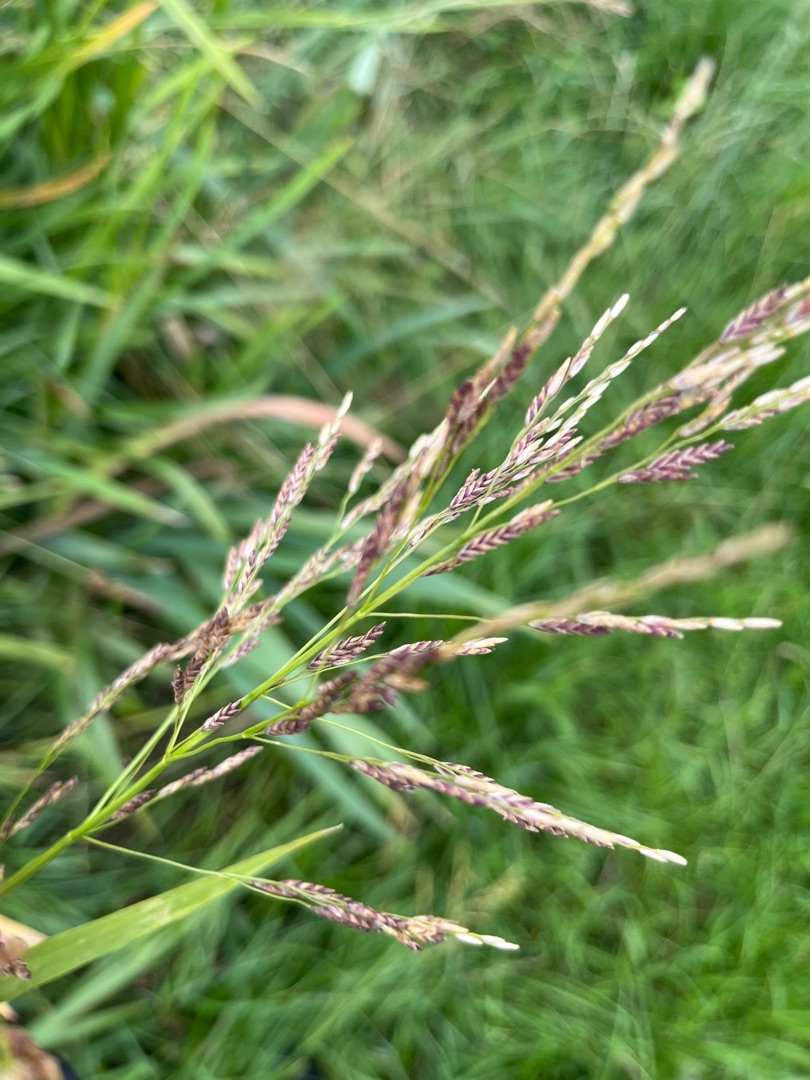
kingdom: Plantae
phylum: Tracheophyta
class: Liliopsida
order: Poales
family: Poaceae
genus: Glyceria
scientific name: Glyceria maxima
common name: Høj sødgræs
